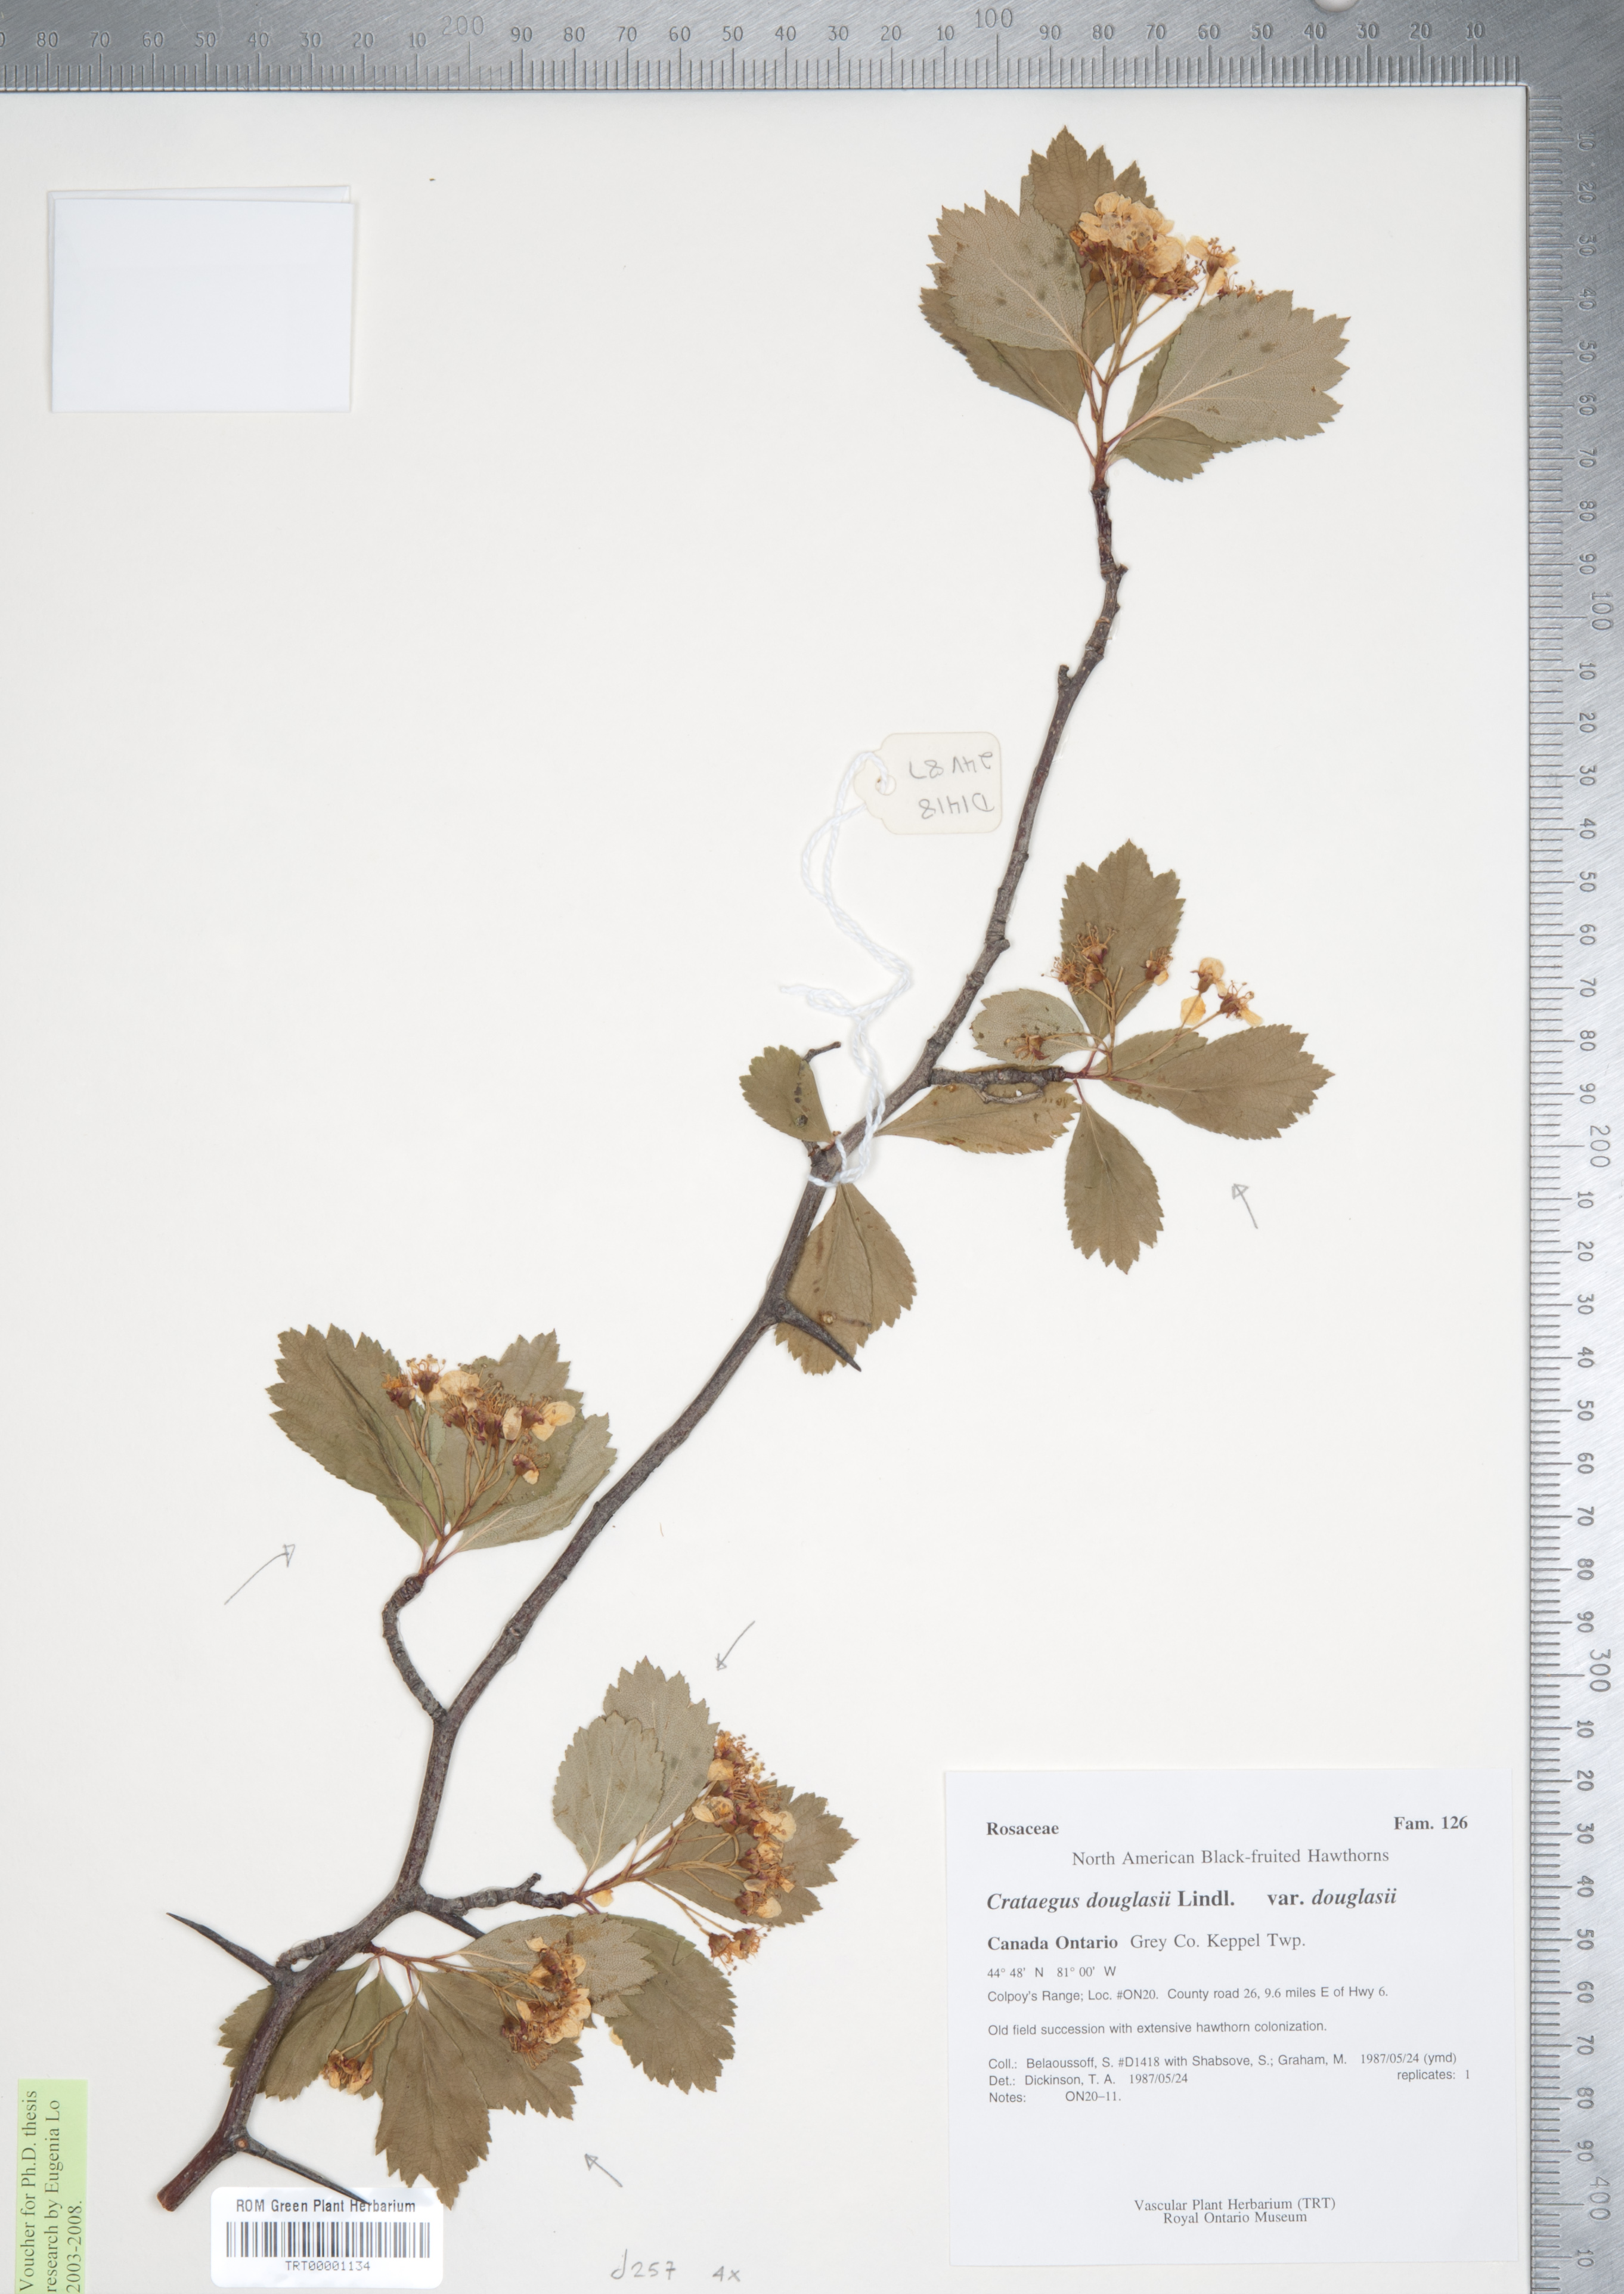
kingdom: Plantae
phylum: Tracheophyta
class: Magnoliopsida
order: Rosales
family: Rosaceae
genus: Crataegus
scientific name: Crataegus douglasii
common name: Black hawthorn
